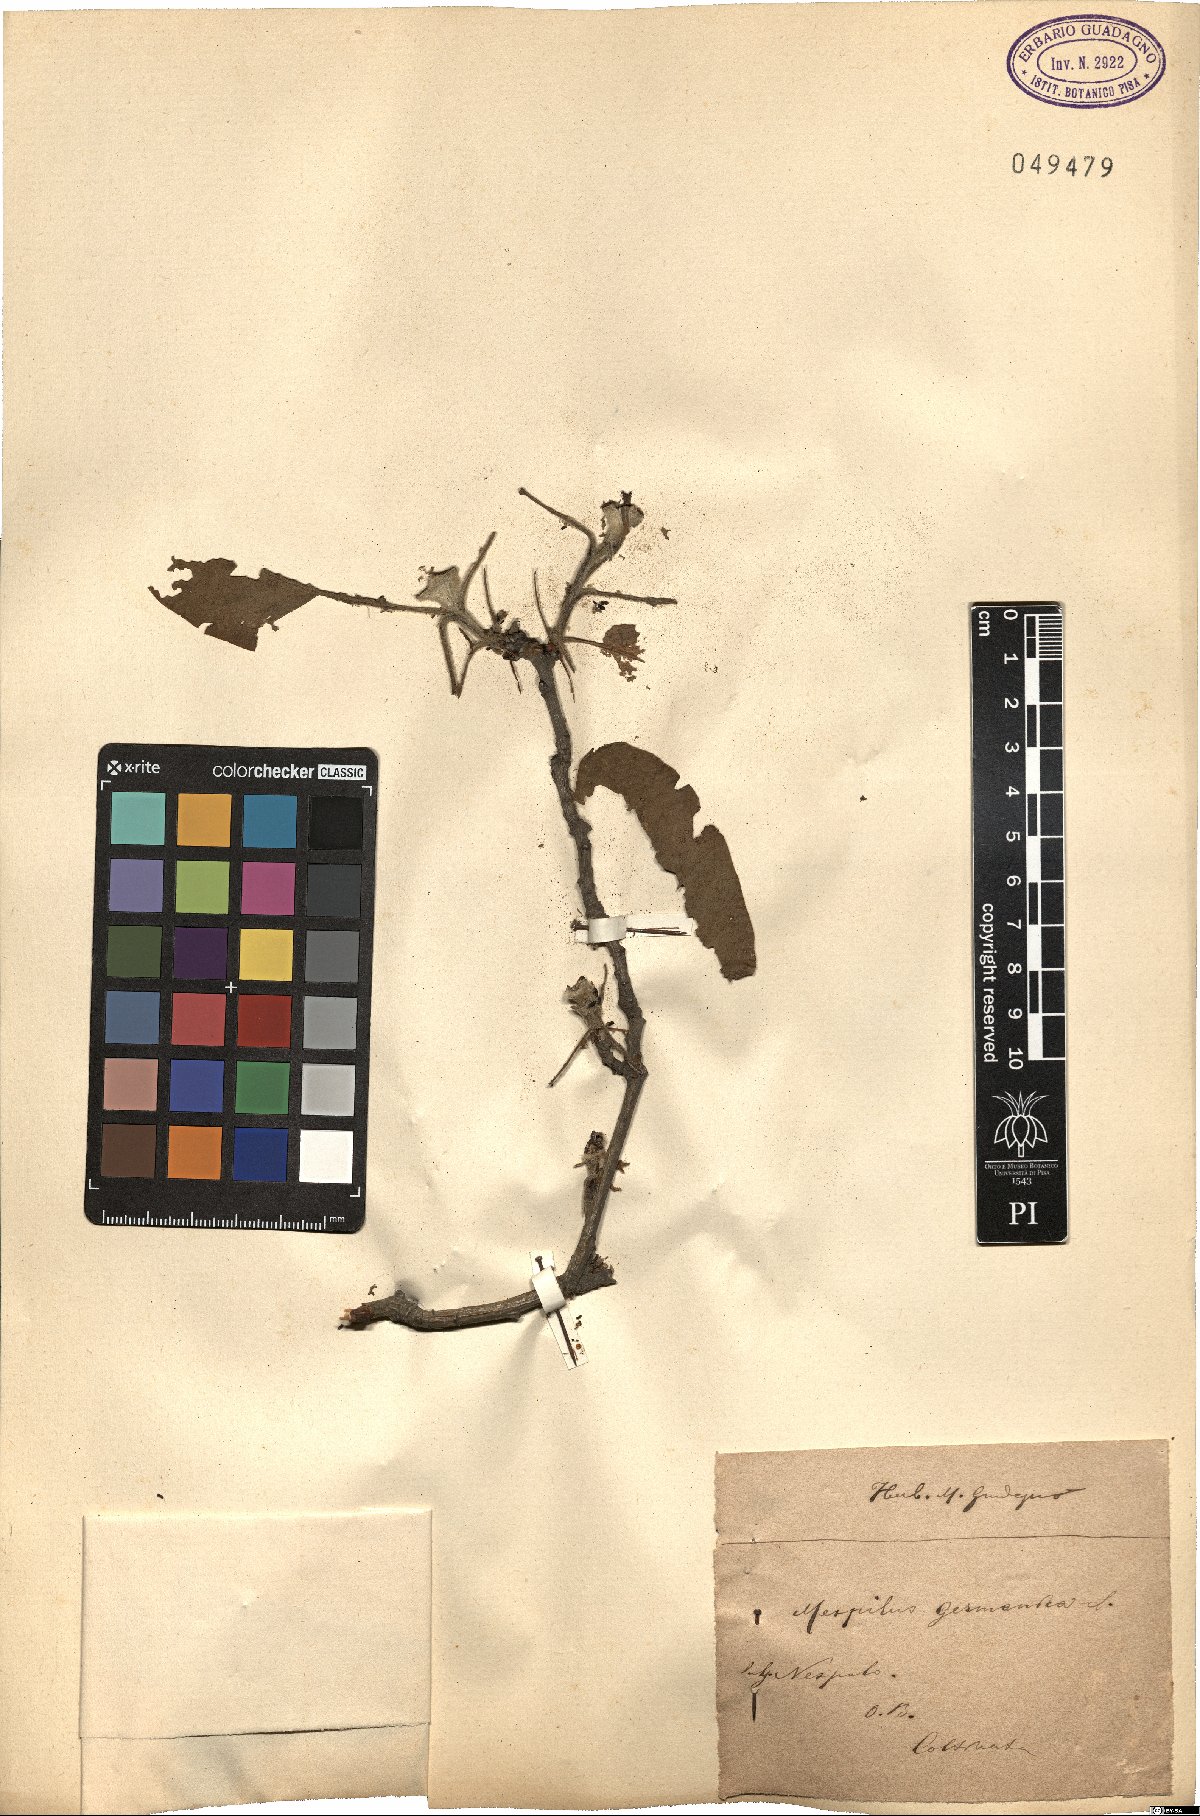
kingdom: Plantae
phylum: Tracheophyta
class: Magnoliopsida
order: Rosales
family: Rosaceae
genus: Mespilus
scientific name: Mespilus germanica
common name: Medlar
